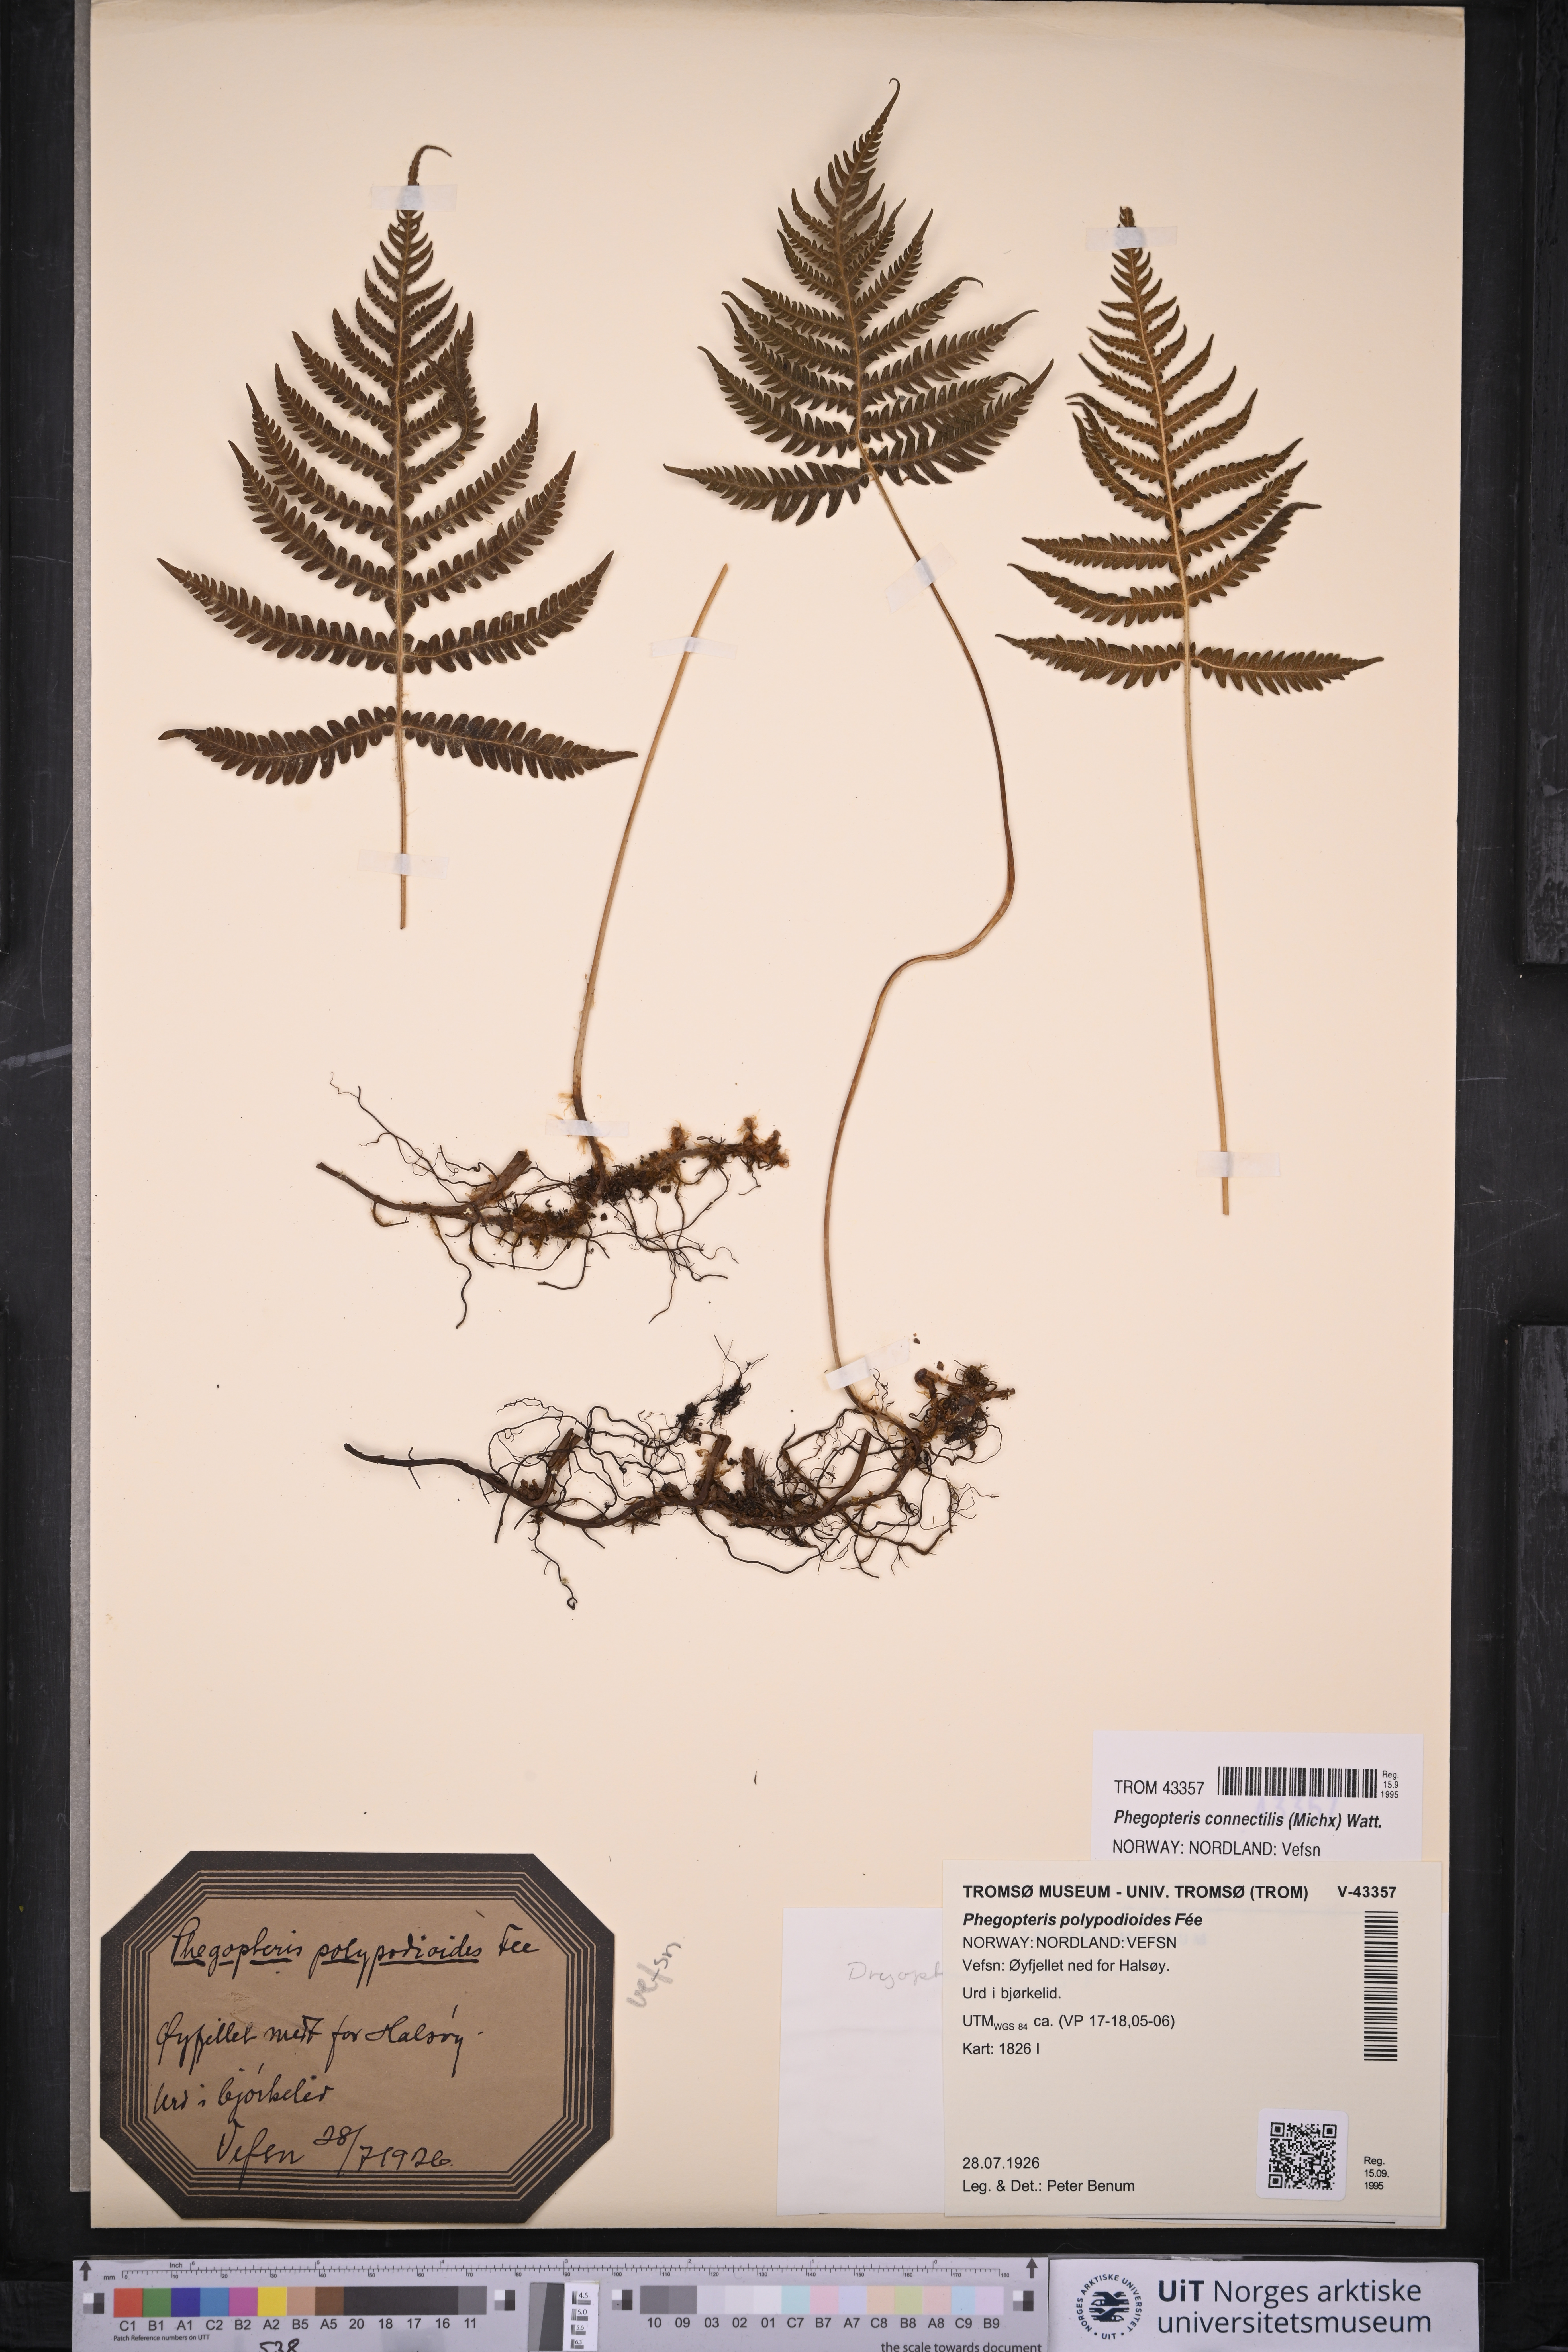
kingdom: Plantae
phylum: Tracheophyta
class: Polypodiopsida
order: Polypodiales
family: Thelypteridaceae
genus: Phegopteris
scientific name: Phegopteris connectilis
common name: Beech fern
